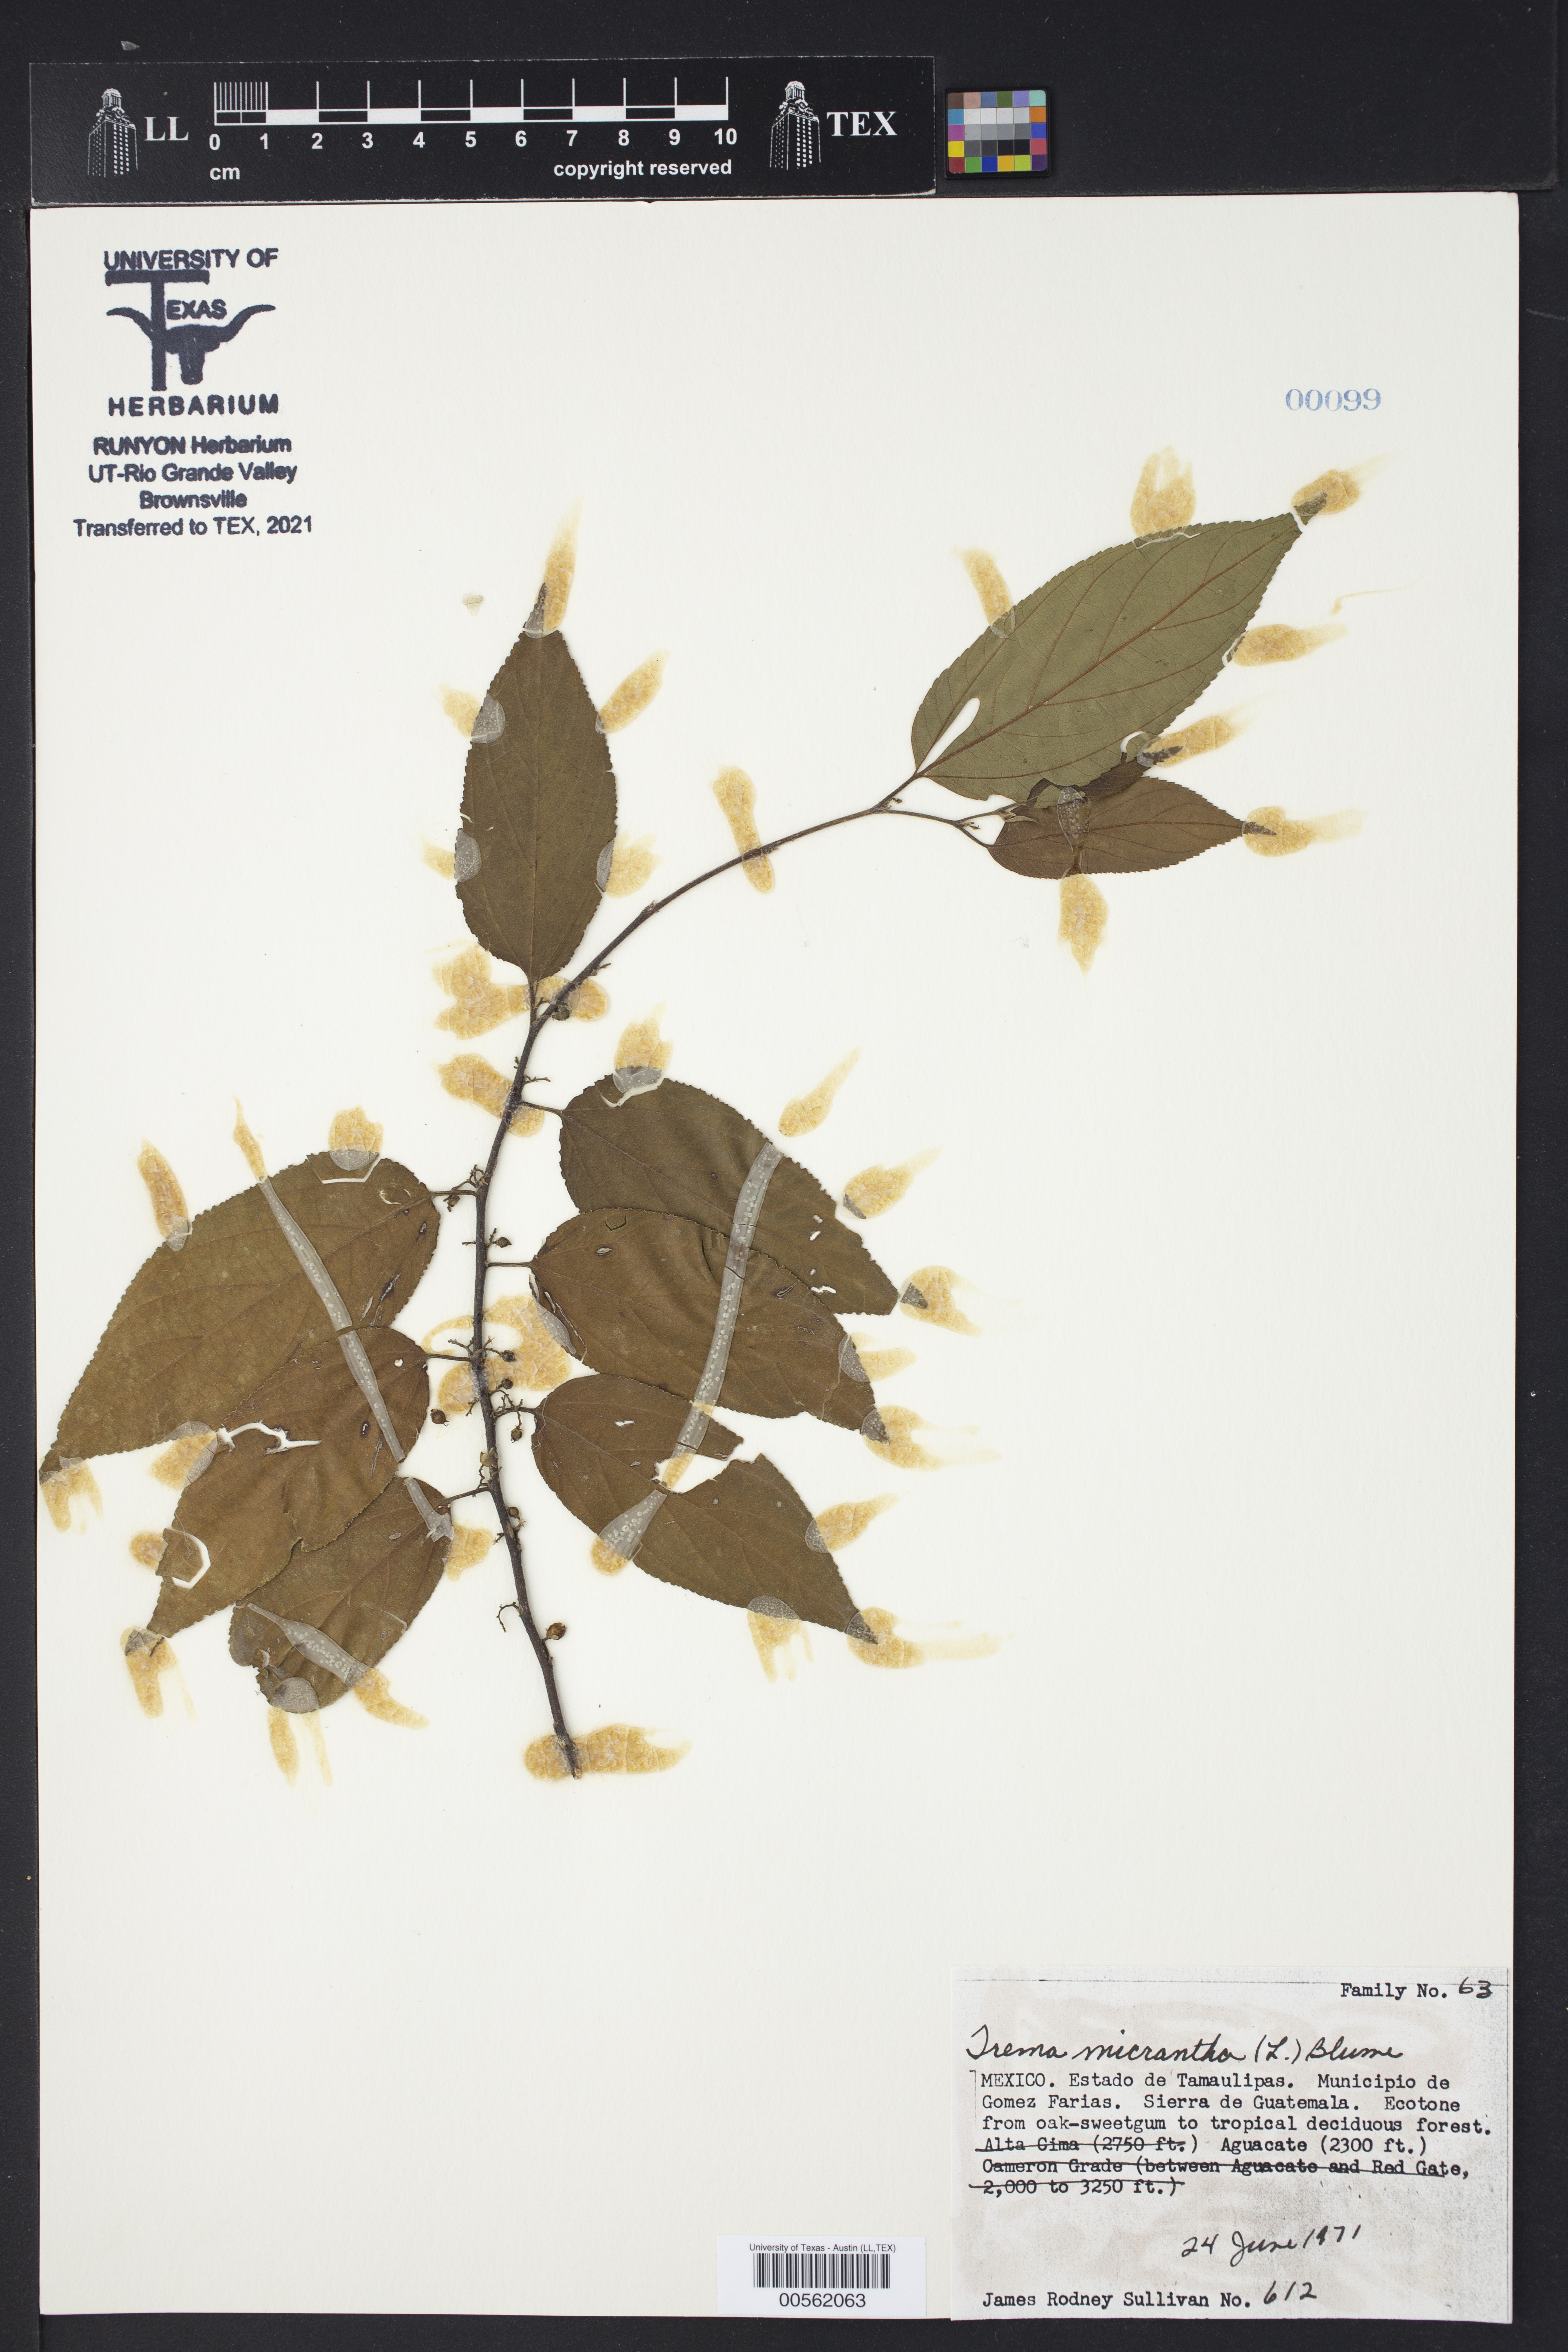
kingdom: Plantae
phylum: Tracheophyta
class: Magnoliopsida
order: Malpighiales
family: Phyllanthaceae
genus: Phyllanthus
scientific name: Phyllanthus acuminatus
